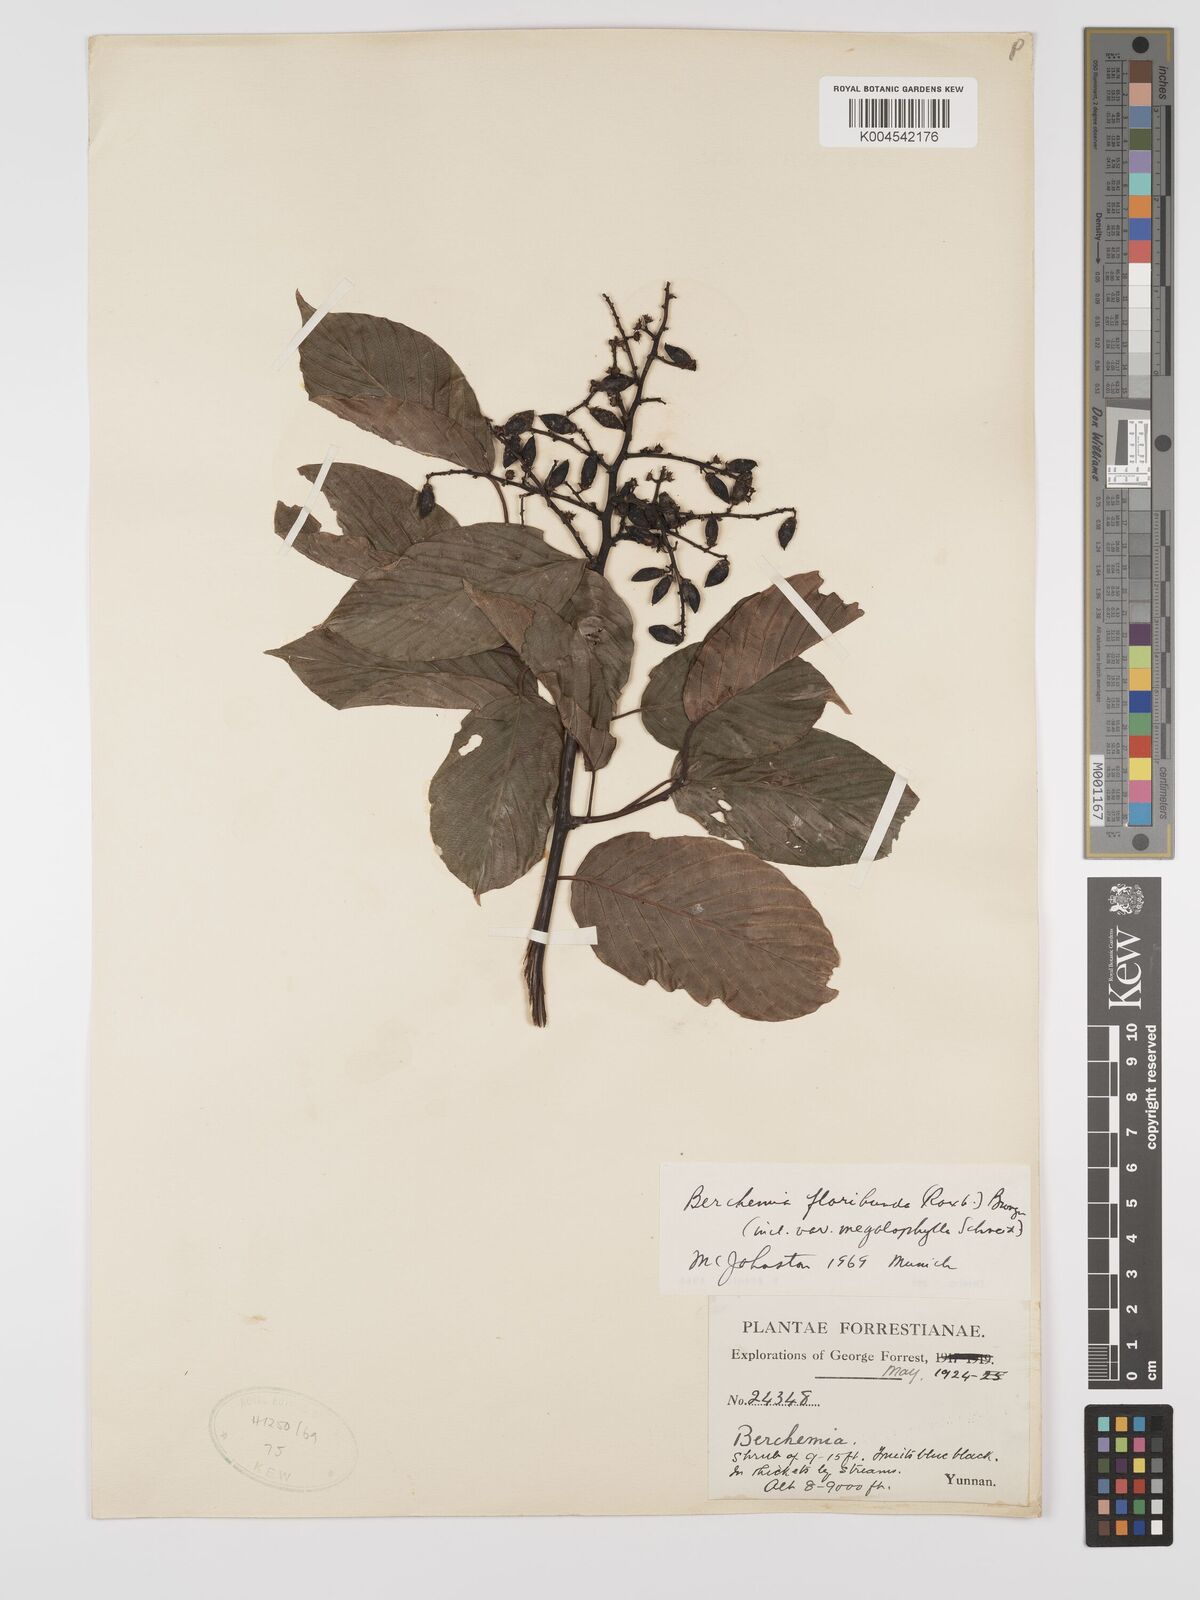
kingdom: Plantae
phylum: Tracheophyta
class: Magnoliopsida
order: Rosales
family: Rhamnaceae
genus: Berchemia
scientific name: Berchemia floribunda
